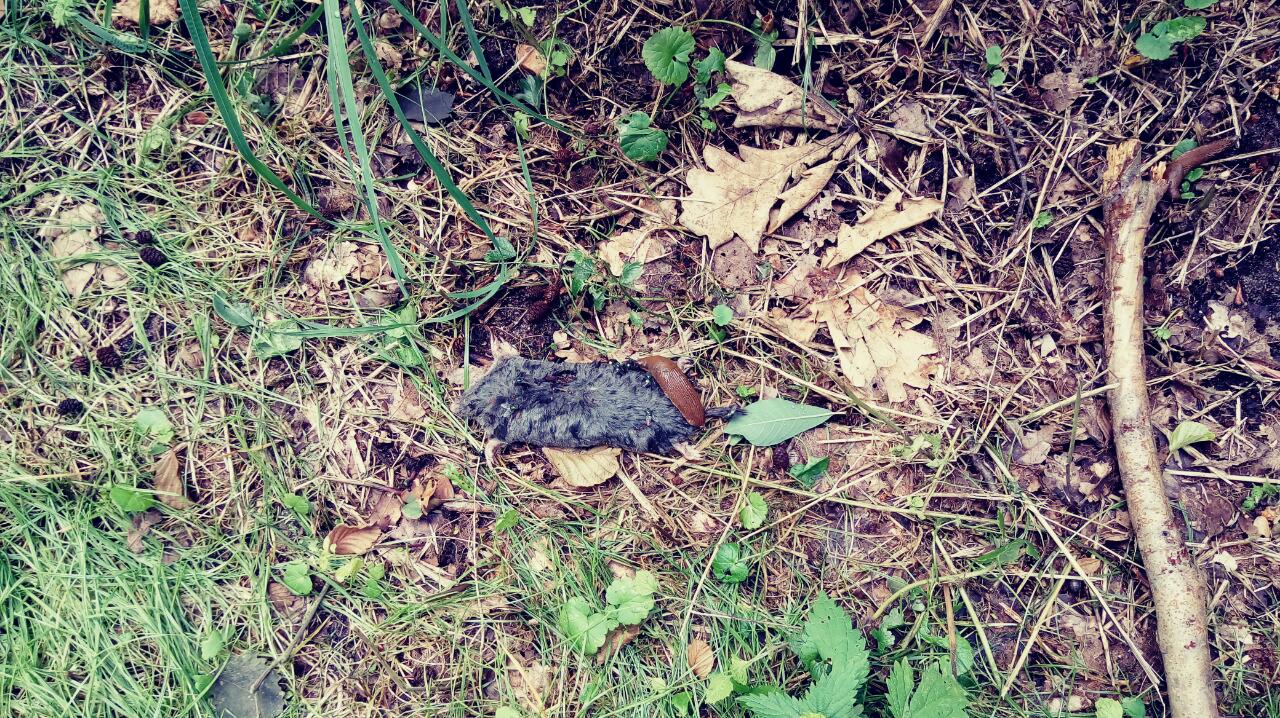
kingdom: Animalia
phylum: Chordata
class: Mammalia
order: Soricomorpha
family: Talpidae
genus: Talpa
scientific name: Talpa europaea
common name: European mole
